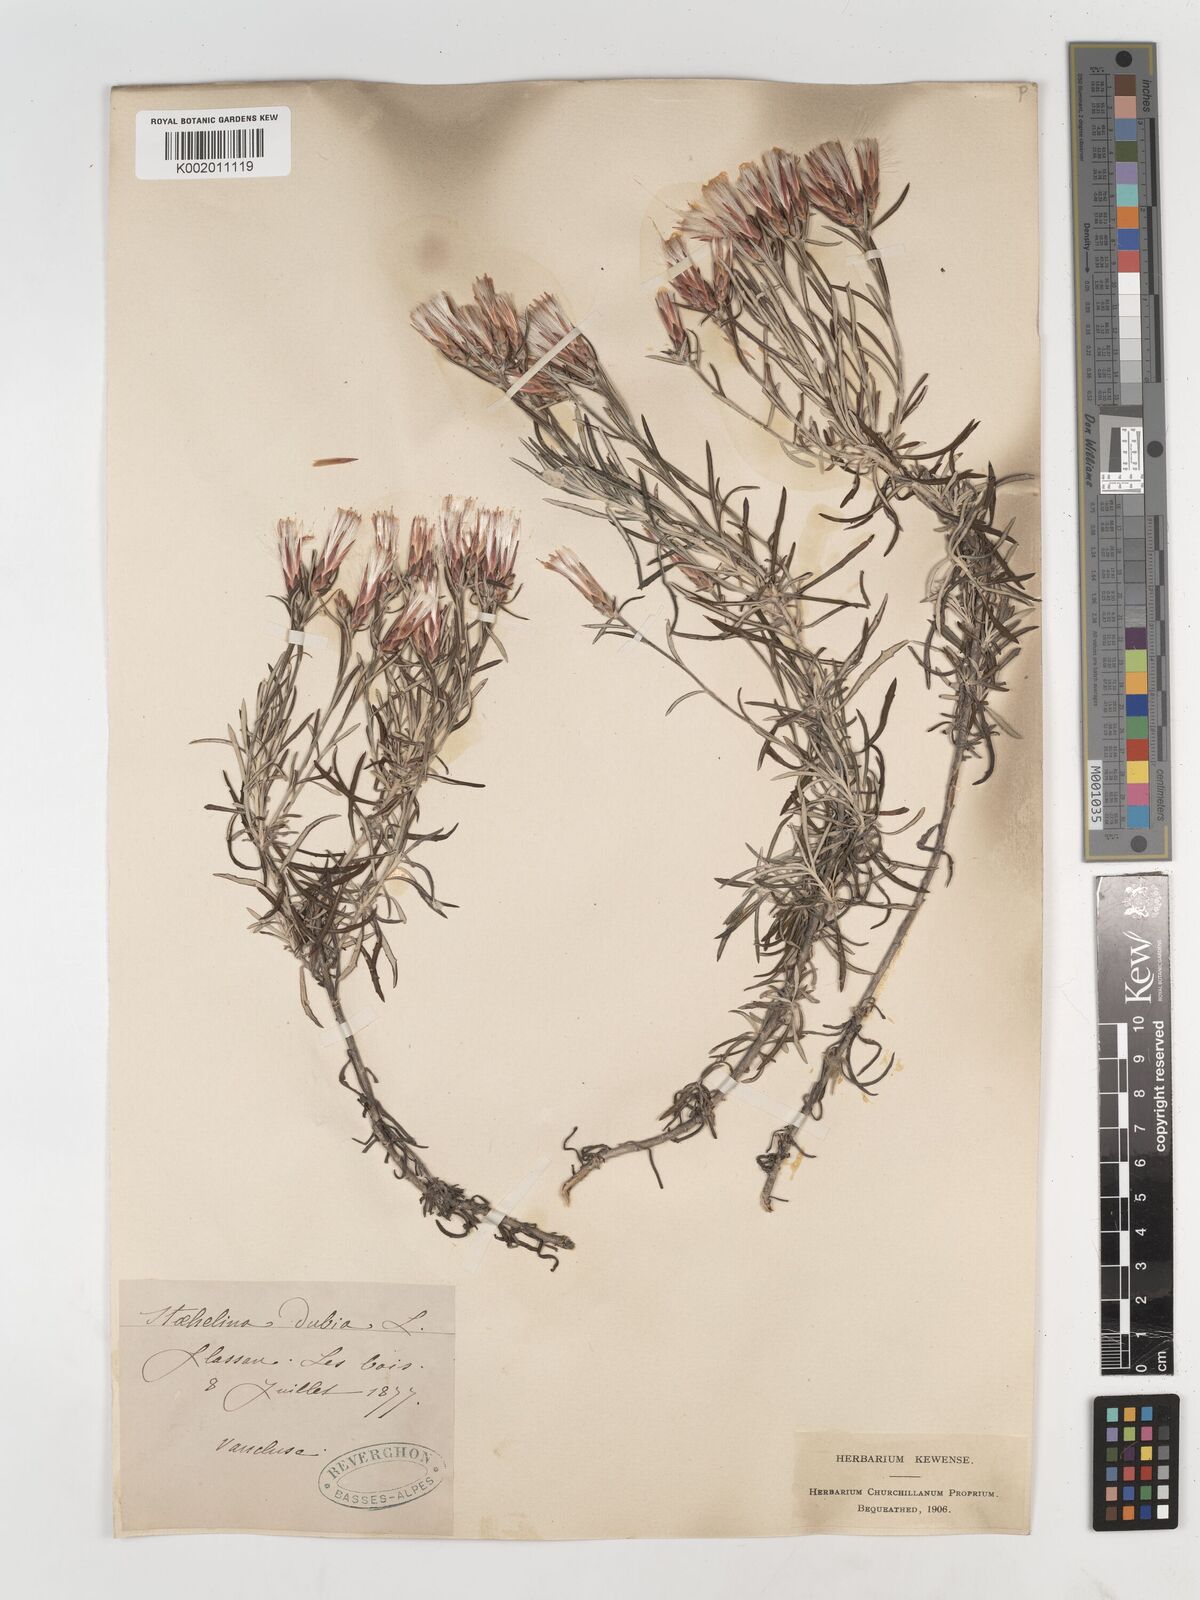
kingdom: Plantae
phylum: Tracheophyta
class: Magnoliopsida
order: Asterales
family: Asteraceae
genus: Staehelina
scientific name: Staehelina dubia
